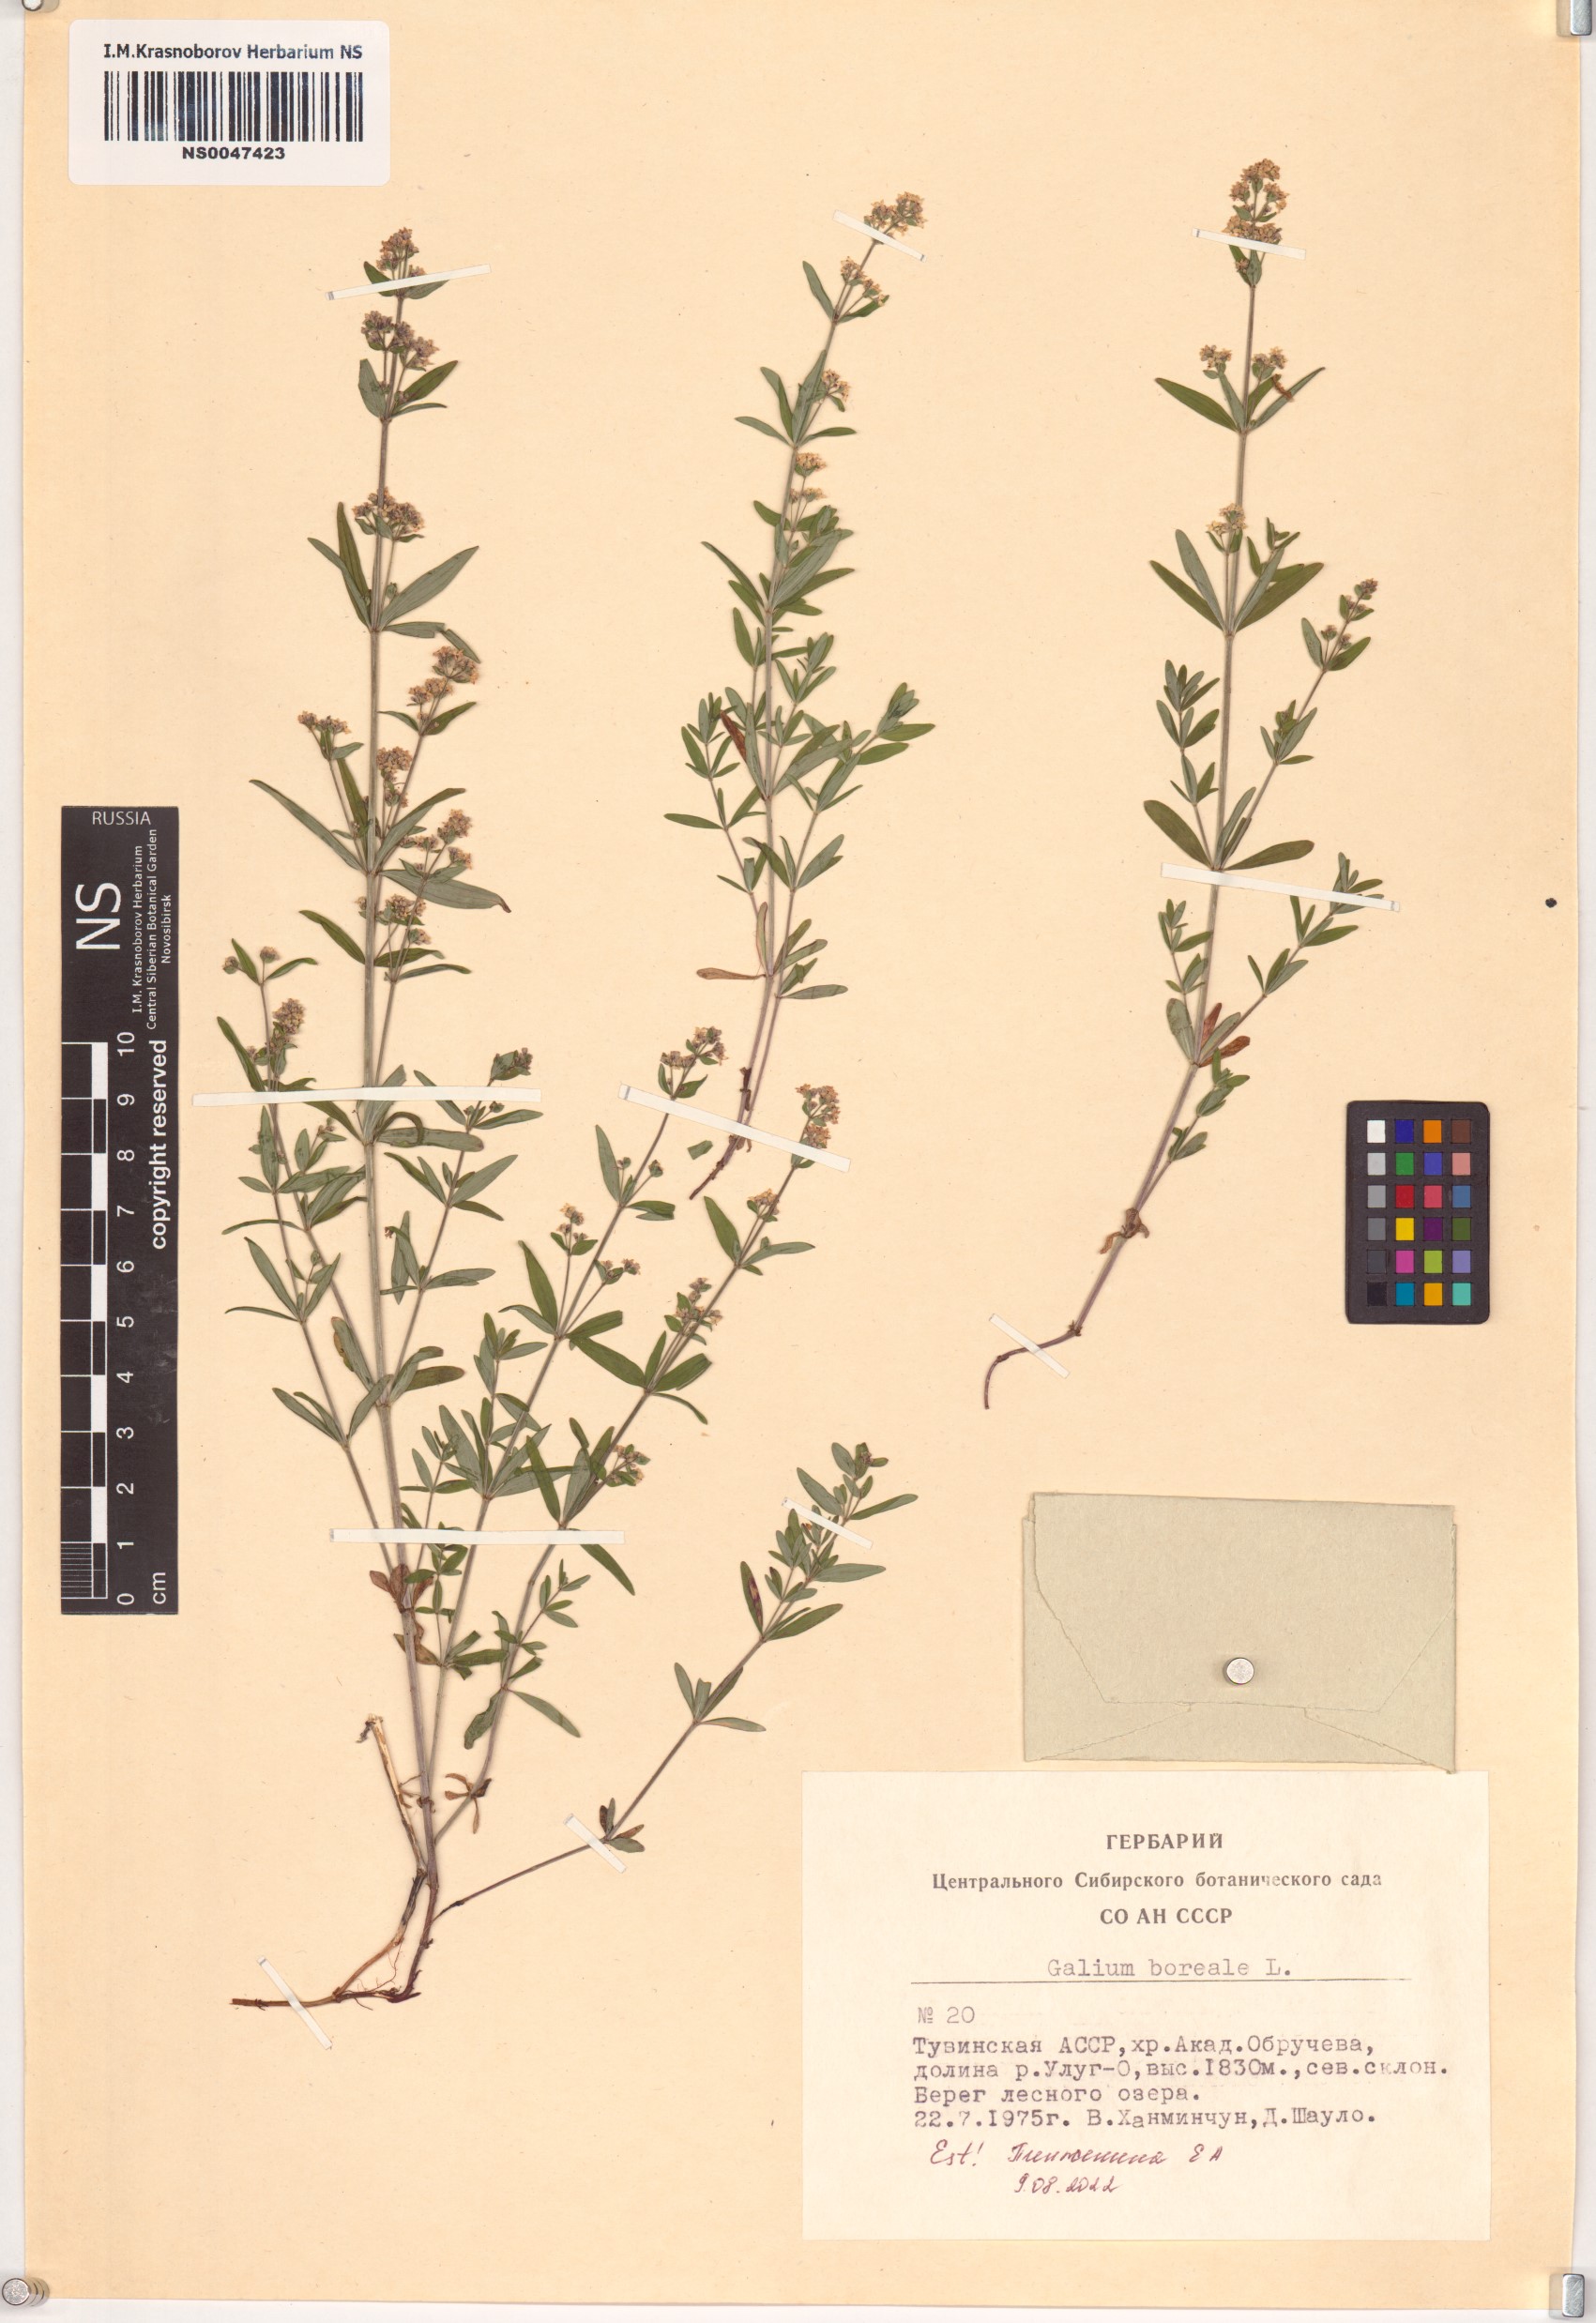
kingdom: Plantae
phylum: Tracheophyta
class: Magnoliopsida
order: Gentianales
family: Rubiaceae
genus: Galium
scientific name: Galium boreale
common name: Northern bedstraw
